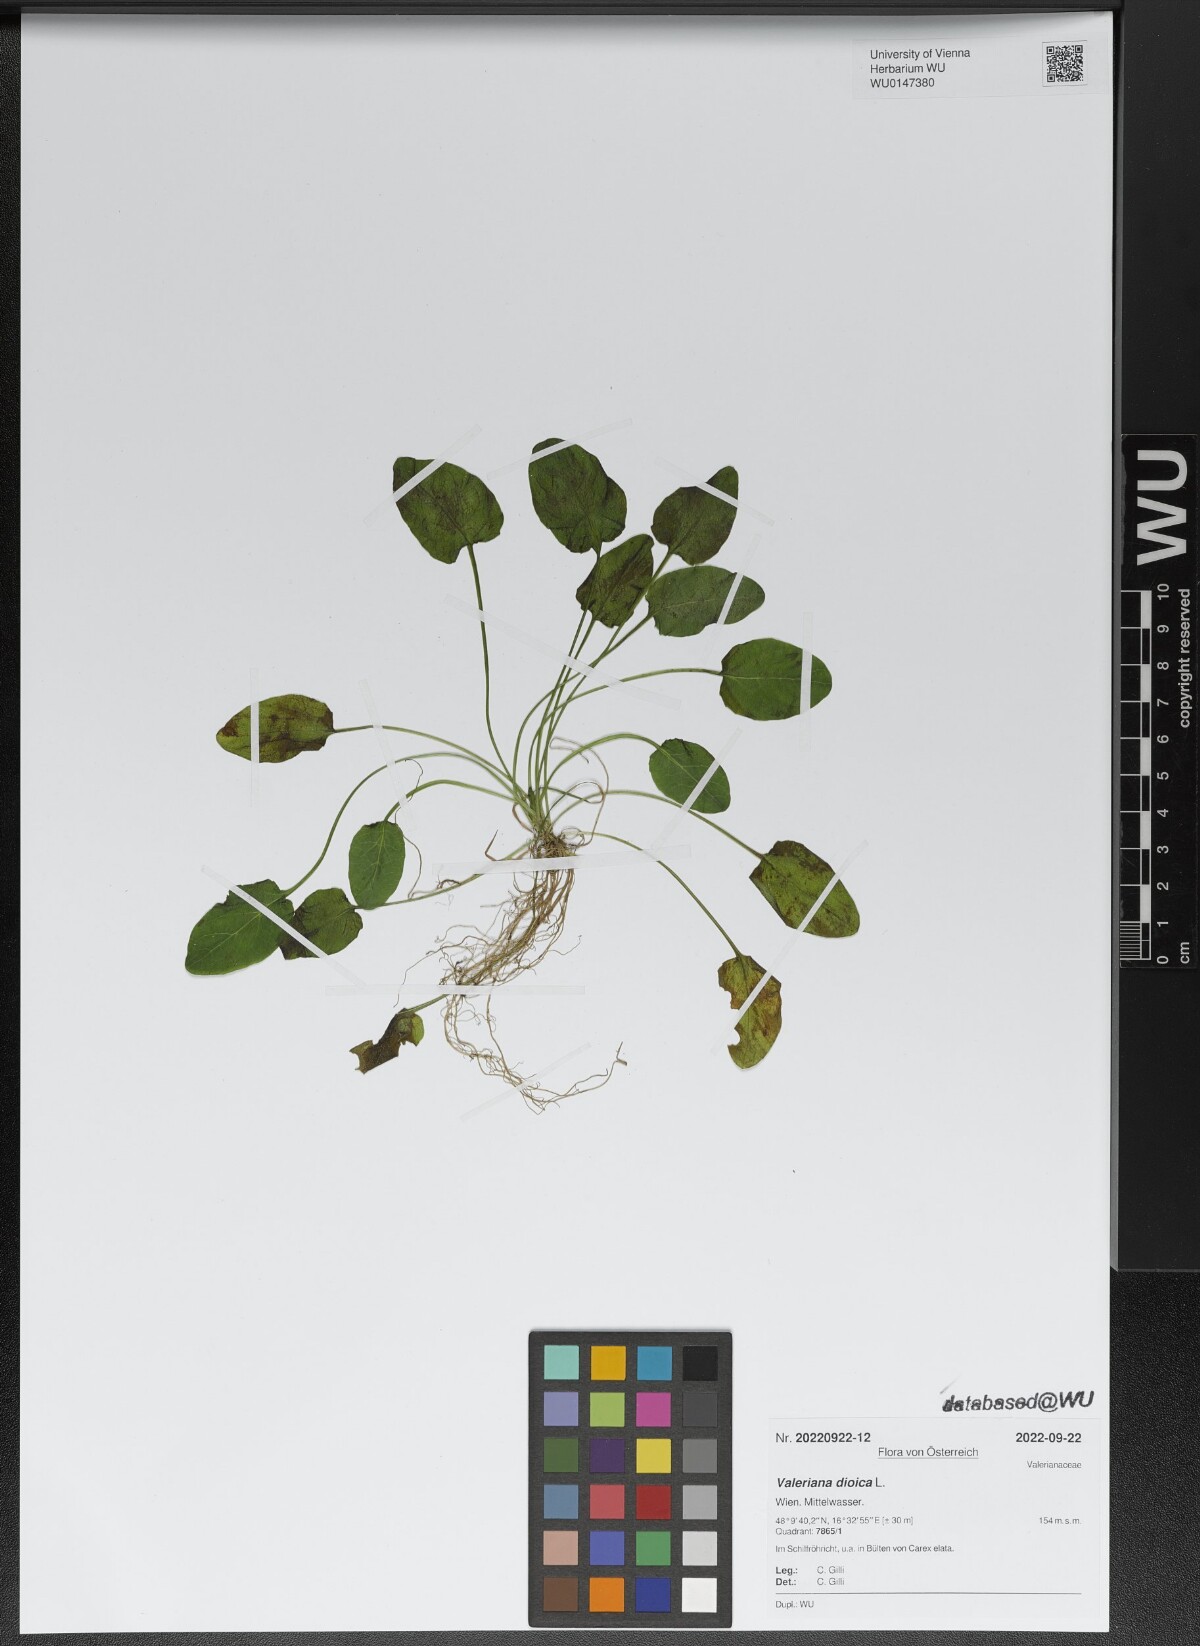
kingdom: Plantae
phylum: Tracheophyta
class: Magnoliopsida
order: Dipsacales
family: Caprifoliaceae
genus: Valeriana
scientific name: Valeriana dioica
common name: Marsh valerian
